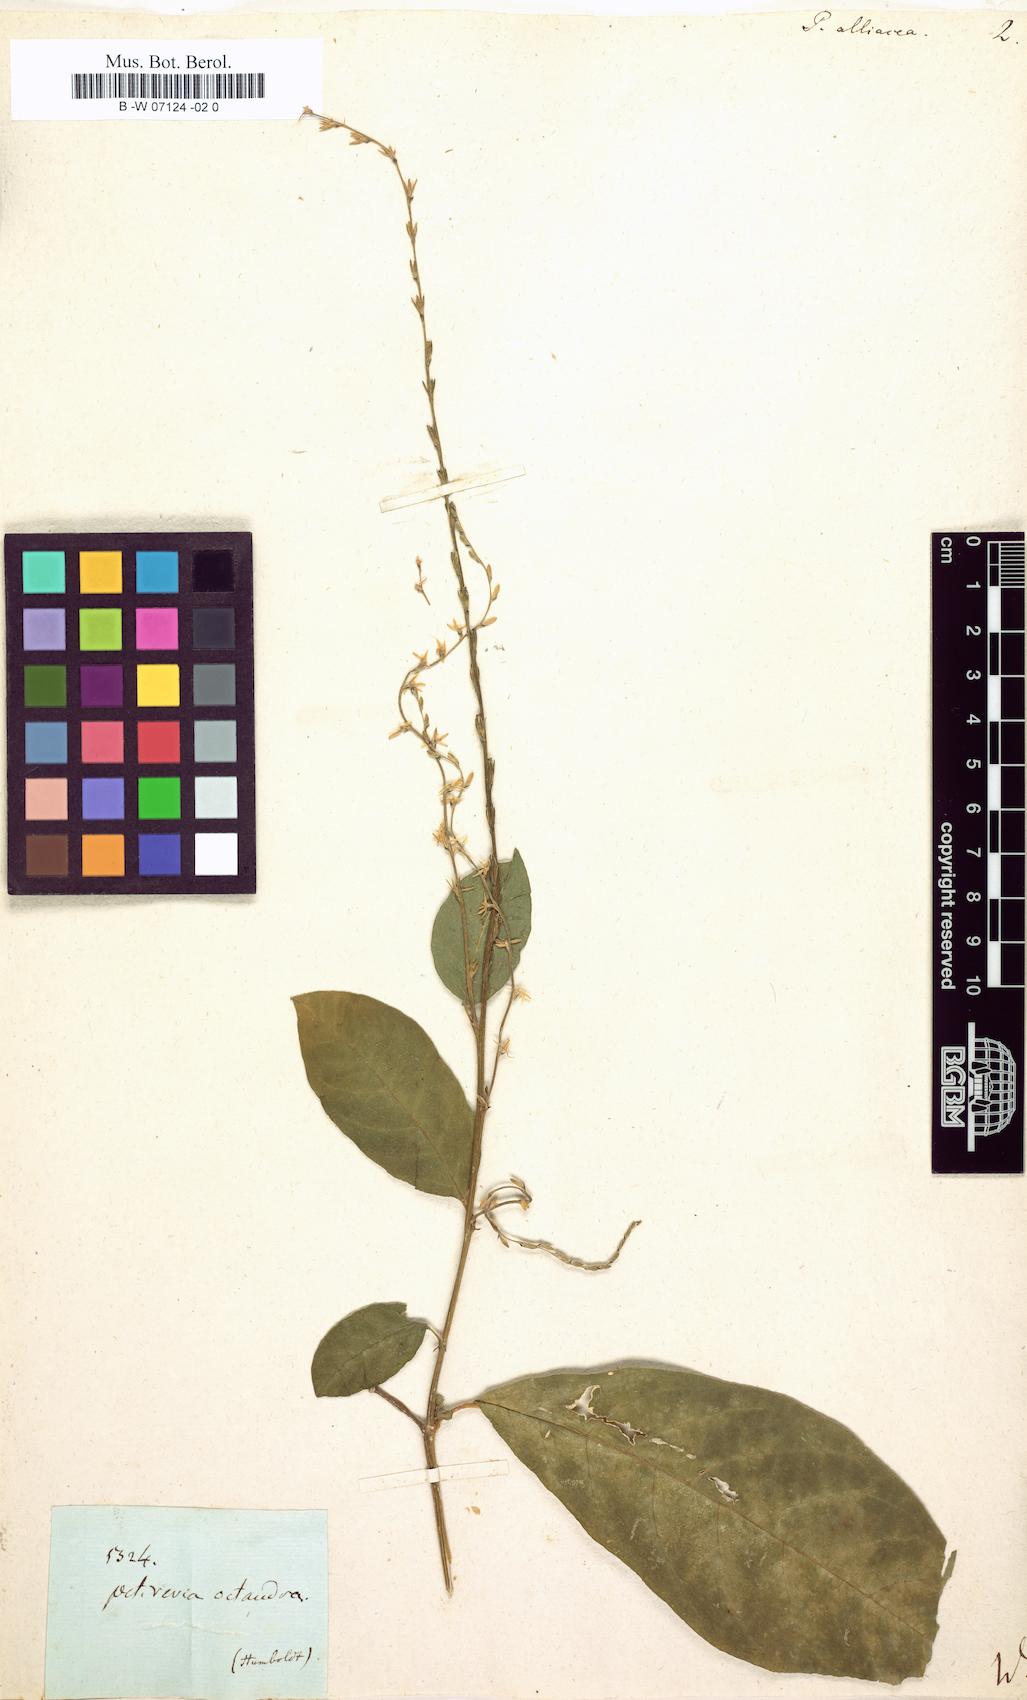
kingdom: Plantae
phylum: Tracheophyta
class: Magnoliopsida
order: Caryophyllales
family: Phytolaccaceae
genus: Petiveria
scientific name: Petiveria alliacea
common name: Garlicweed
